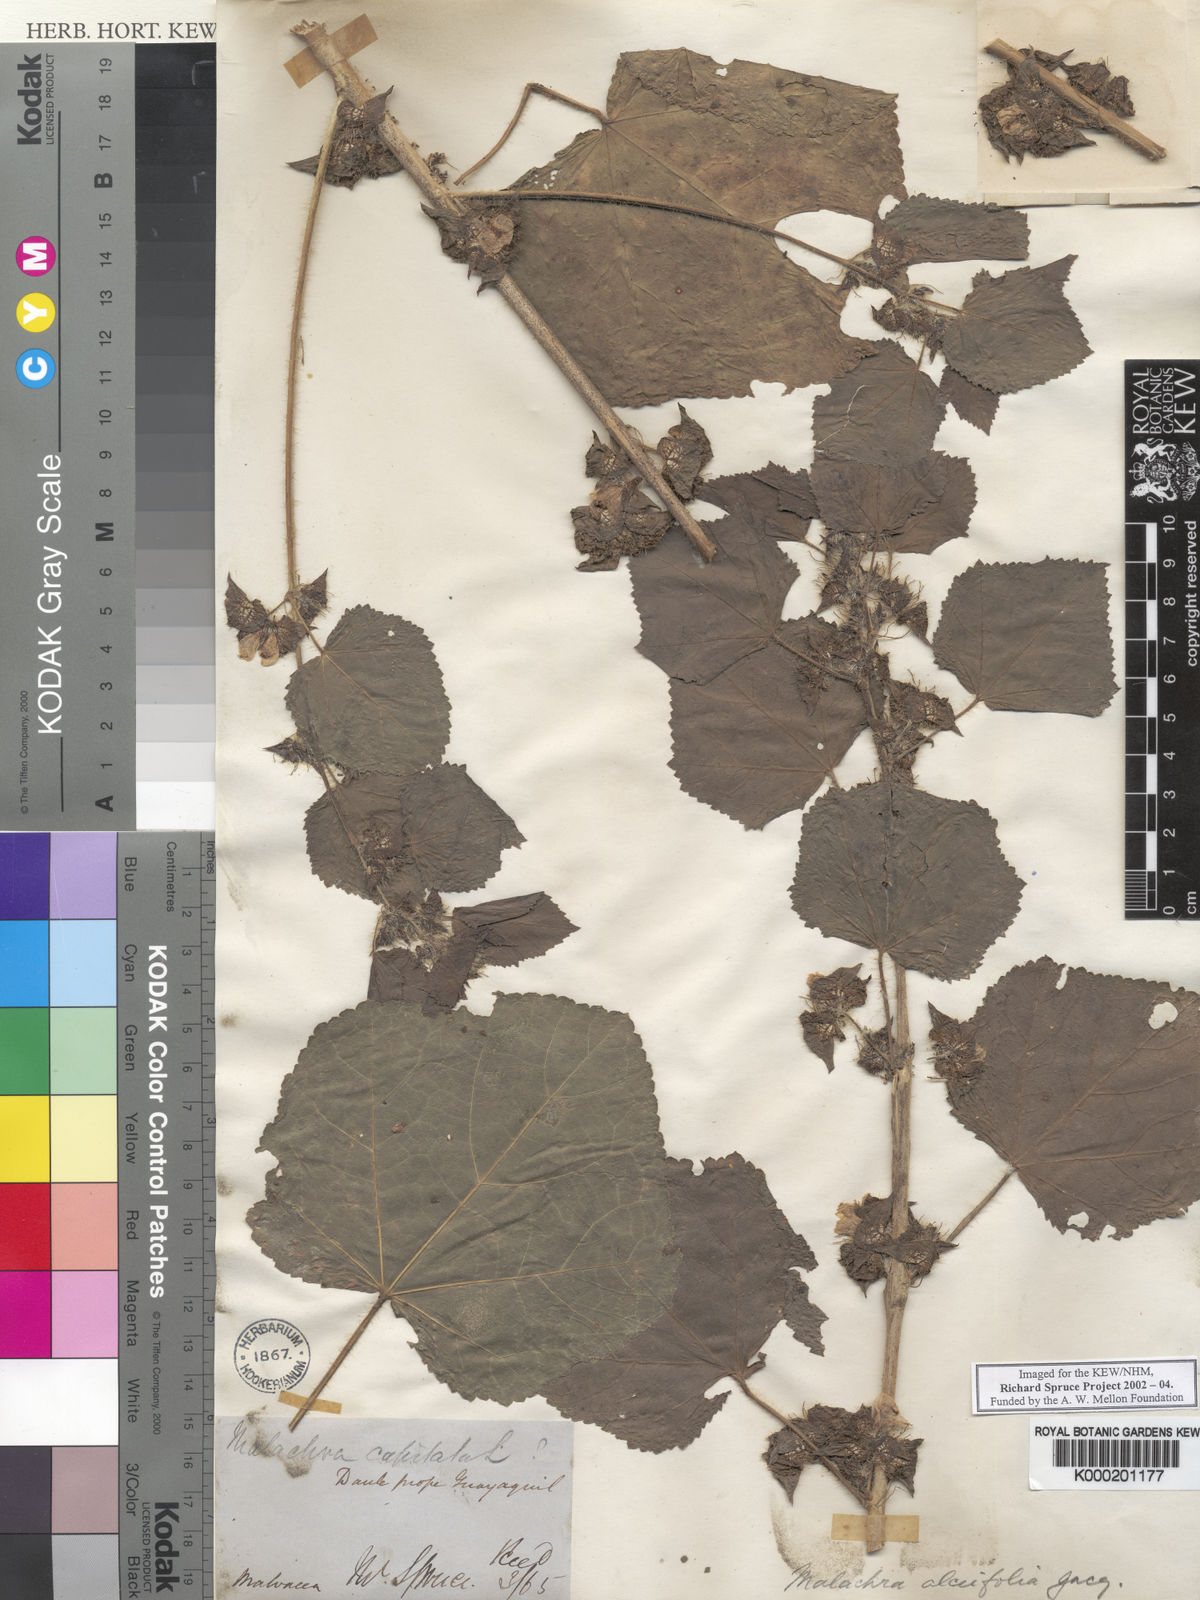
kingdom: Plantae
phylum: Tracheophyta
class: Magnoliopsida
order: Malvales
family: Malvaceae
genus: Malachra
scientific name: Malachra alceifolia
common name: Yellow leafbract
